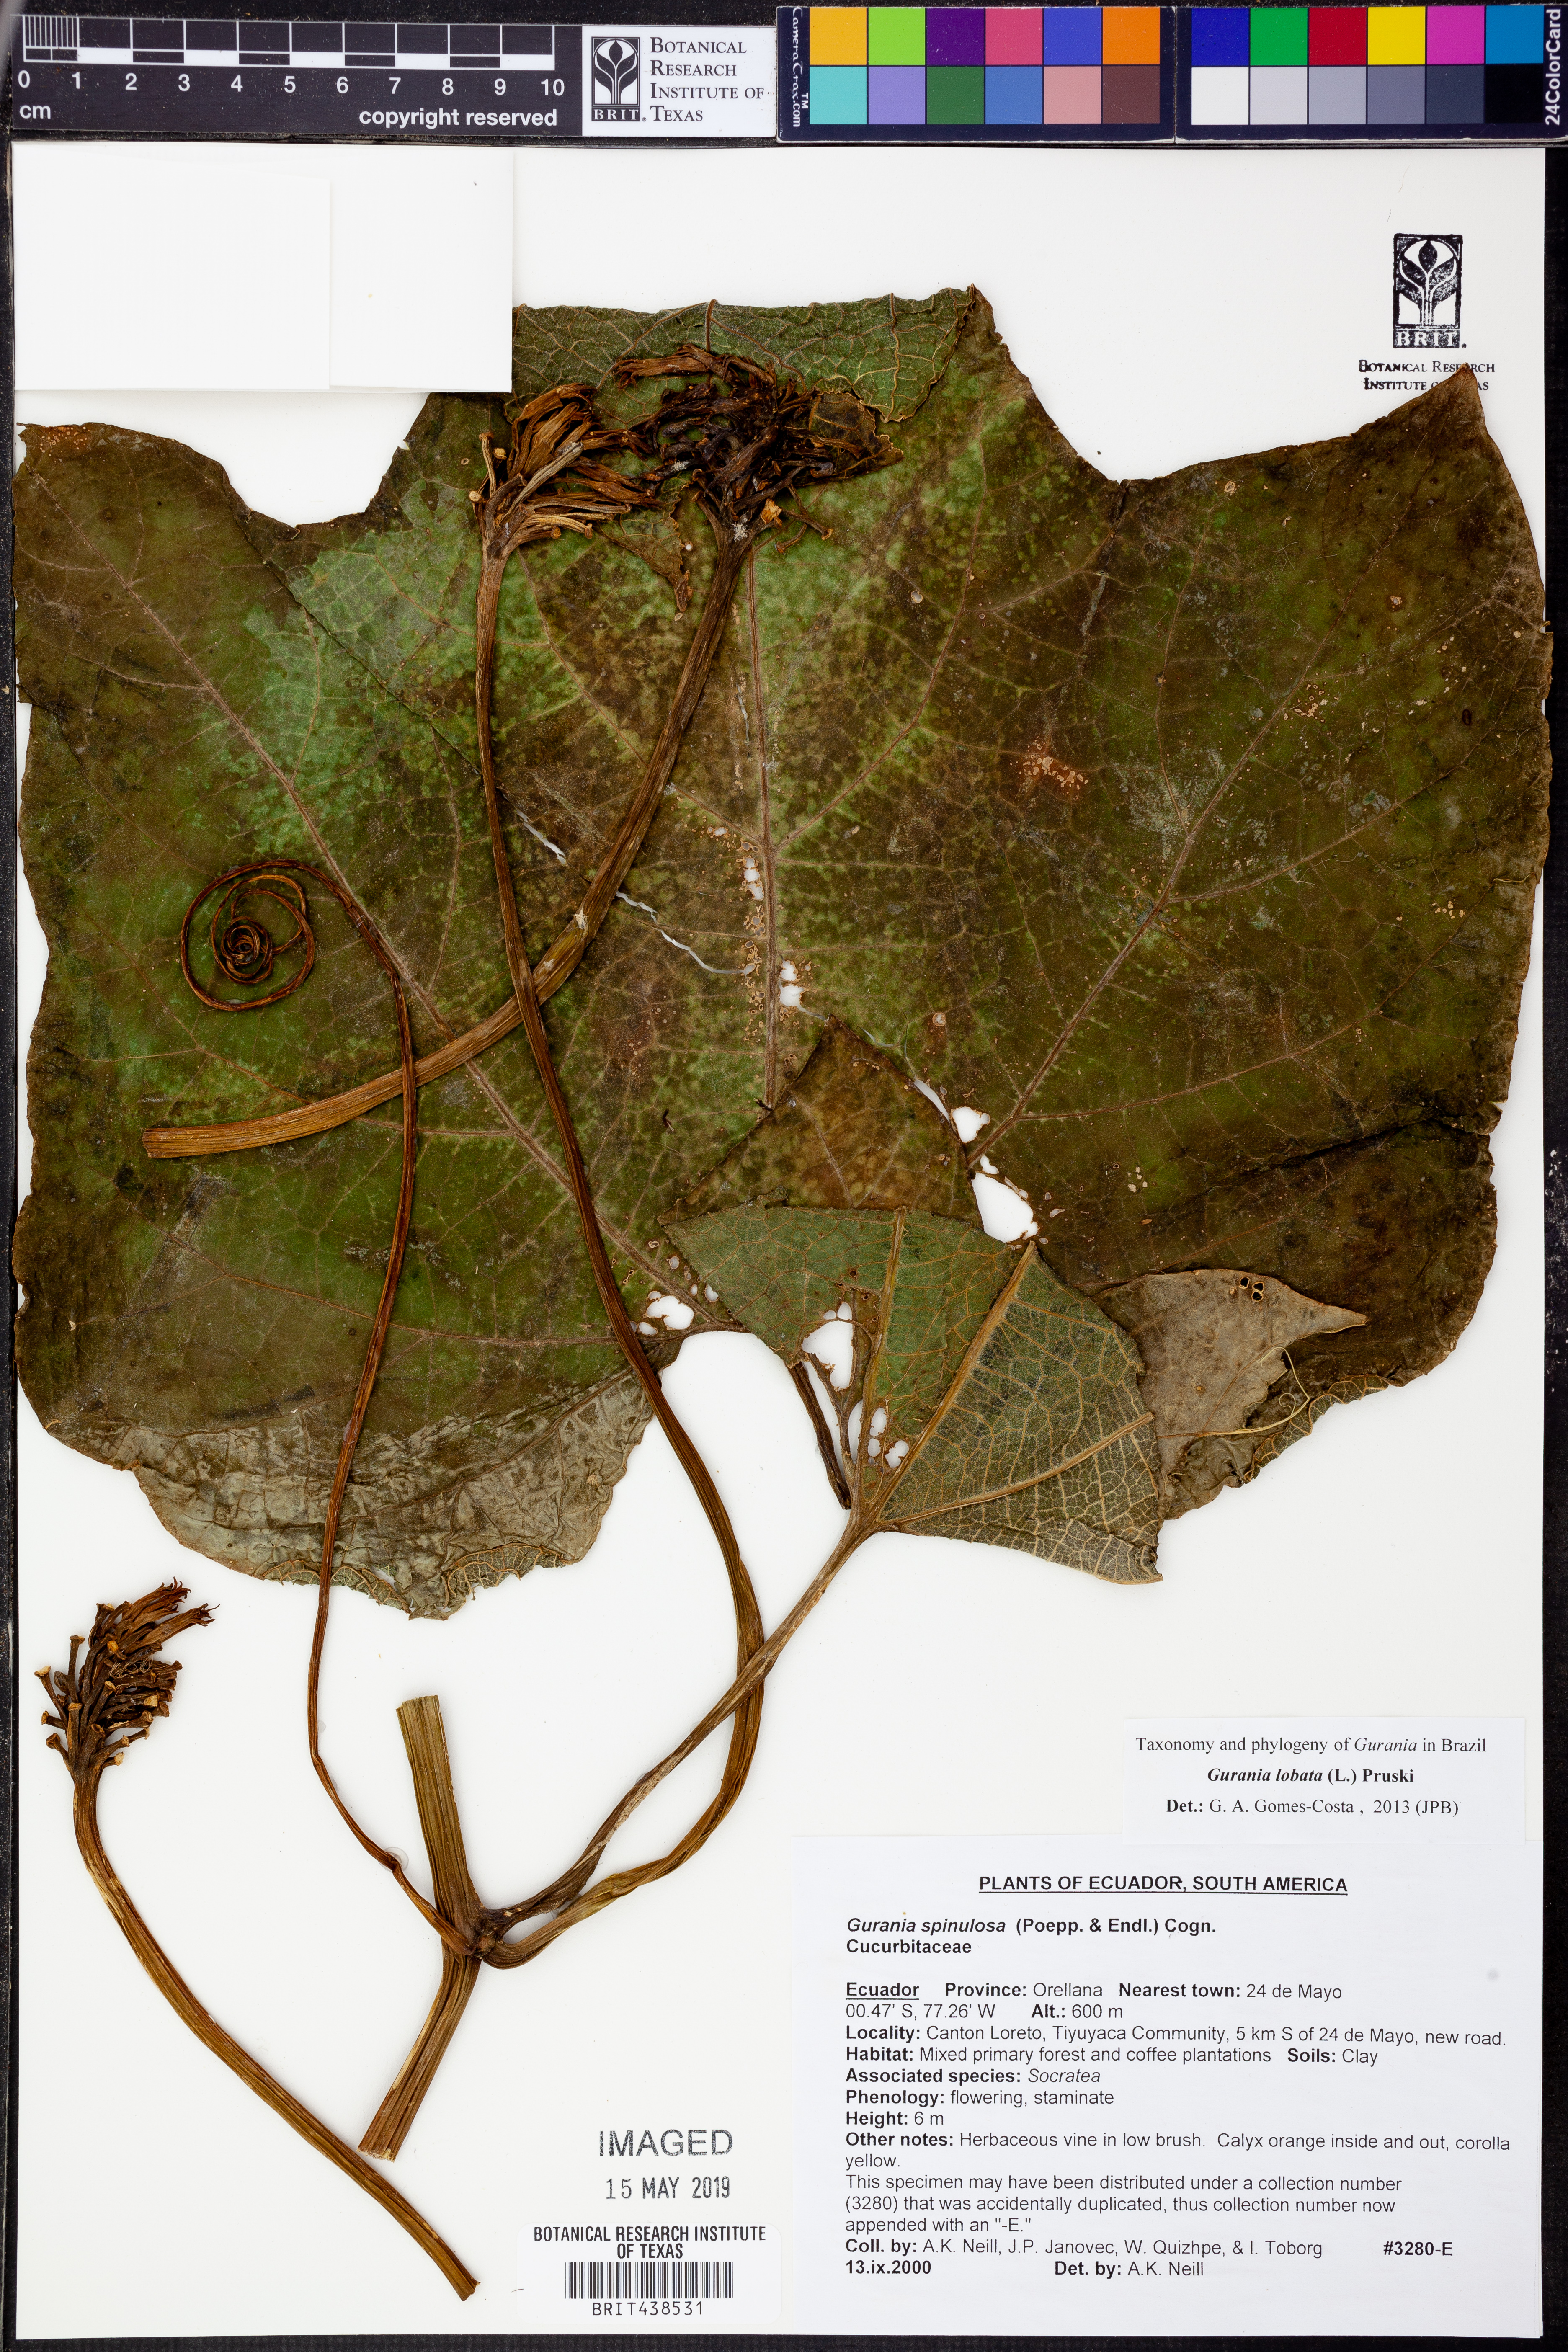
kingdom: Plantae
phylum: Tracheophyta
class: Magnoliopsida
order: Cucurbitales
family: Cucurbitaceae
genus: Gurania
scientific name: Gurania lobata
